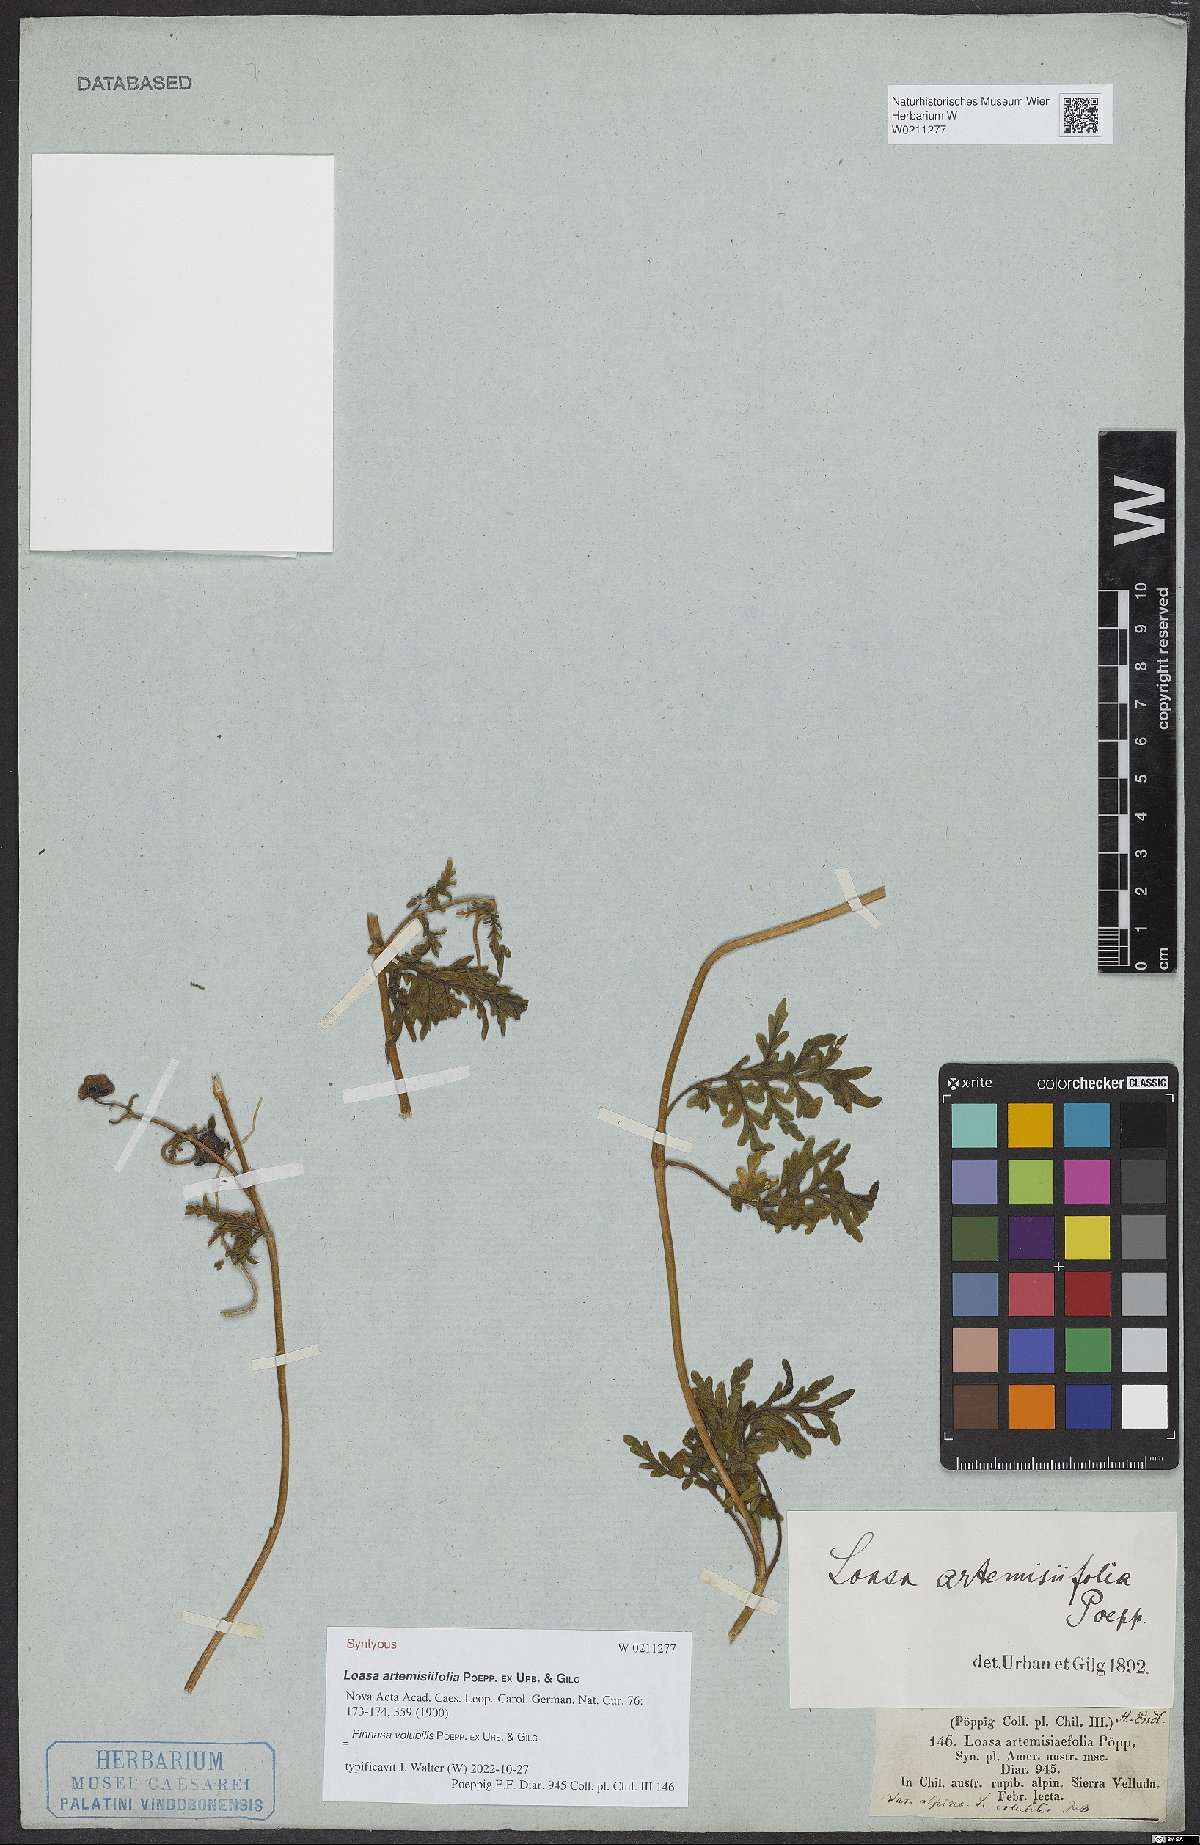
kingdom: Plantae
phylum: Tracheophyta
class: Magnoliopsida
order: Cornales
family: Loasaceae
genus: Pinnasa
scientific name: Pinnasa volubilis
